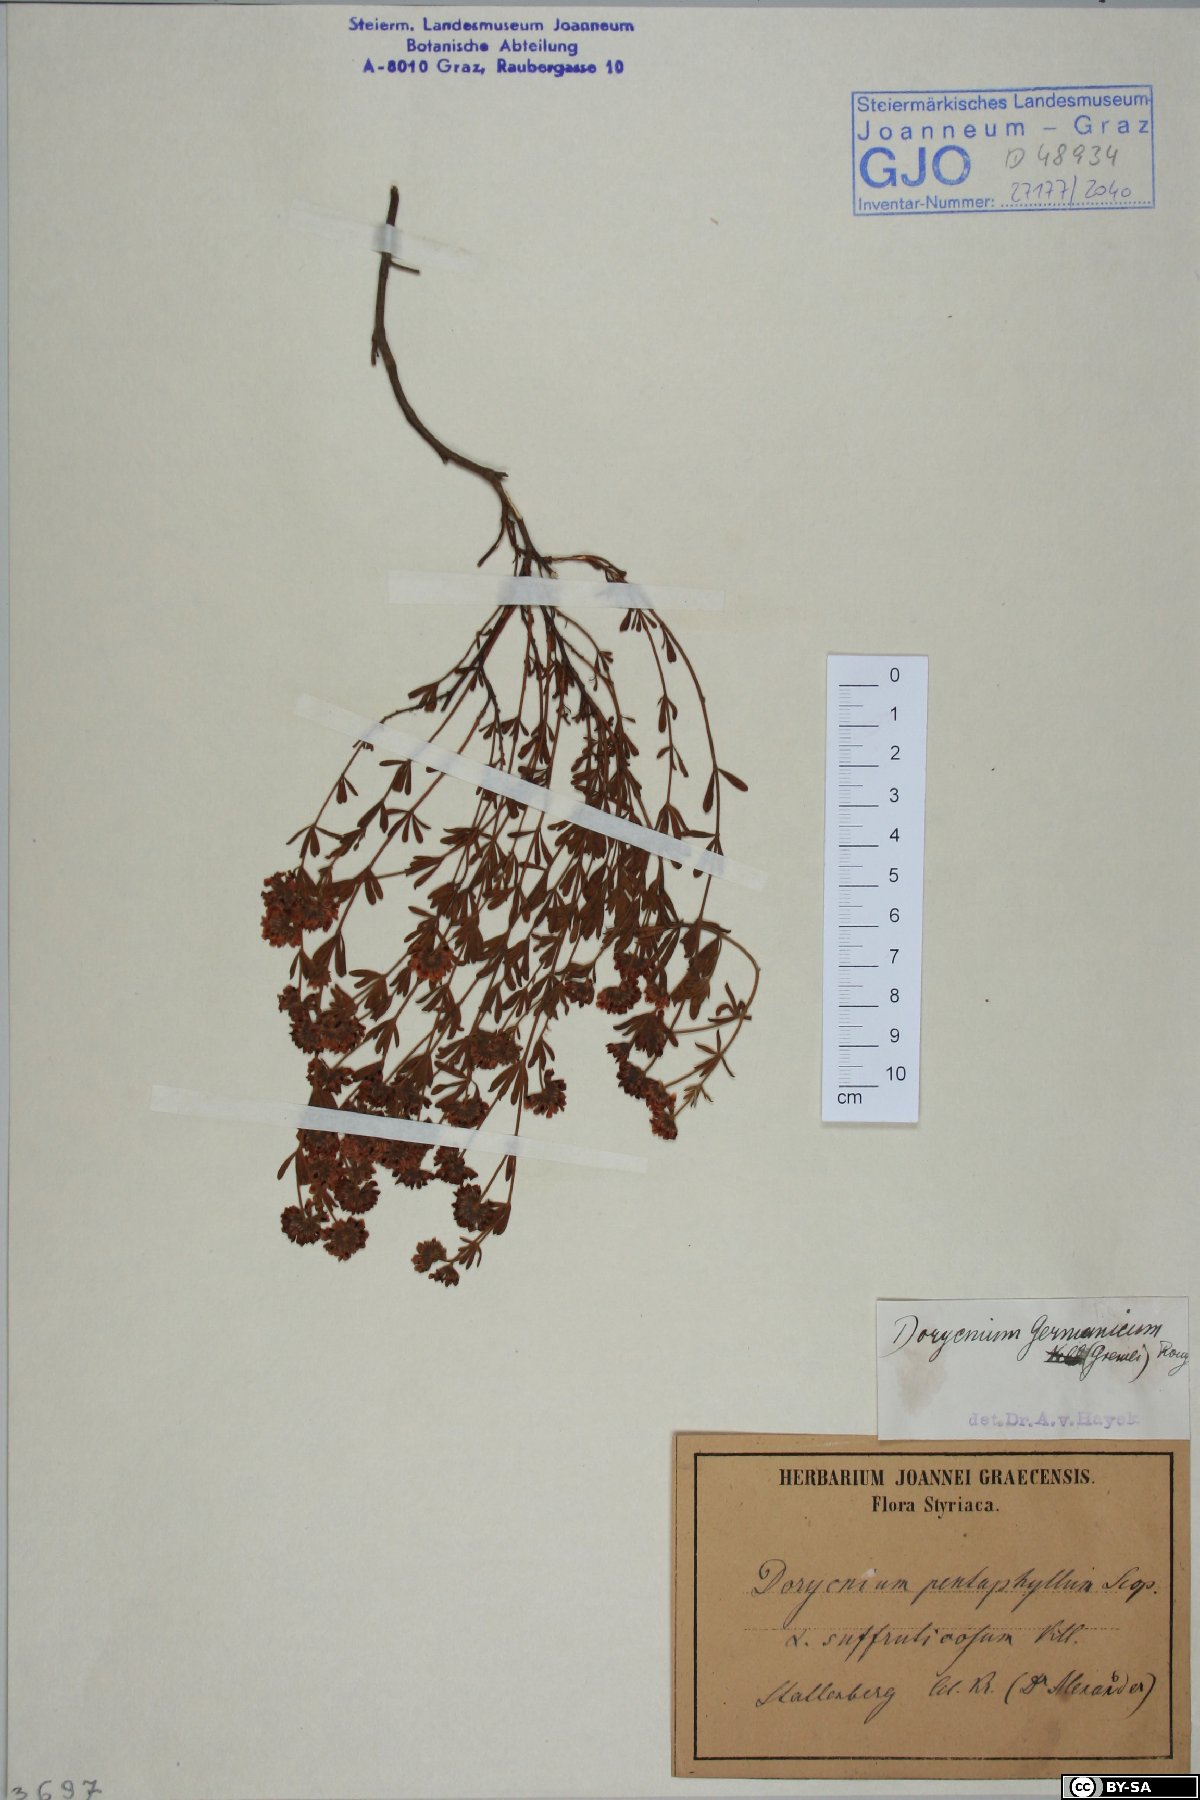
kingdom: Plantae
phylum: Tracheophyta
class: Magnoliopsida
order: Fabales
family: Fabaceae
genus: Lotus
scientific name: Lotus dorycnium
